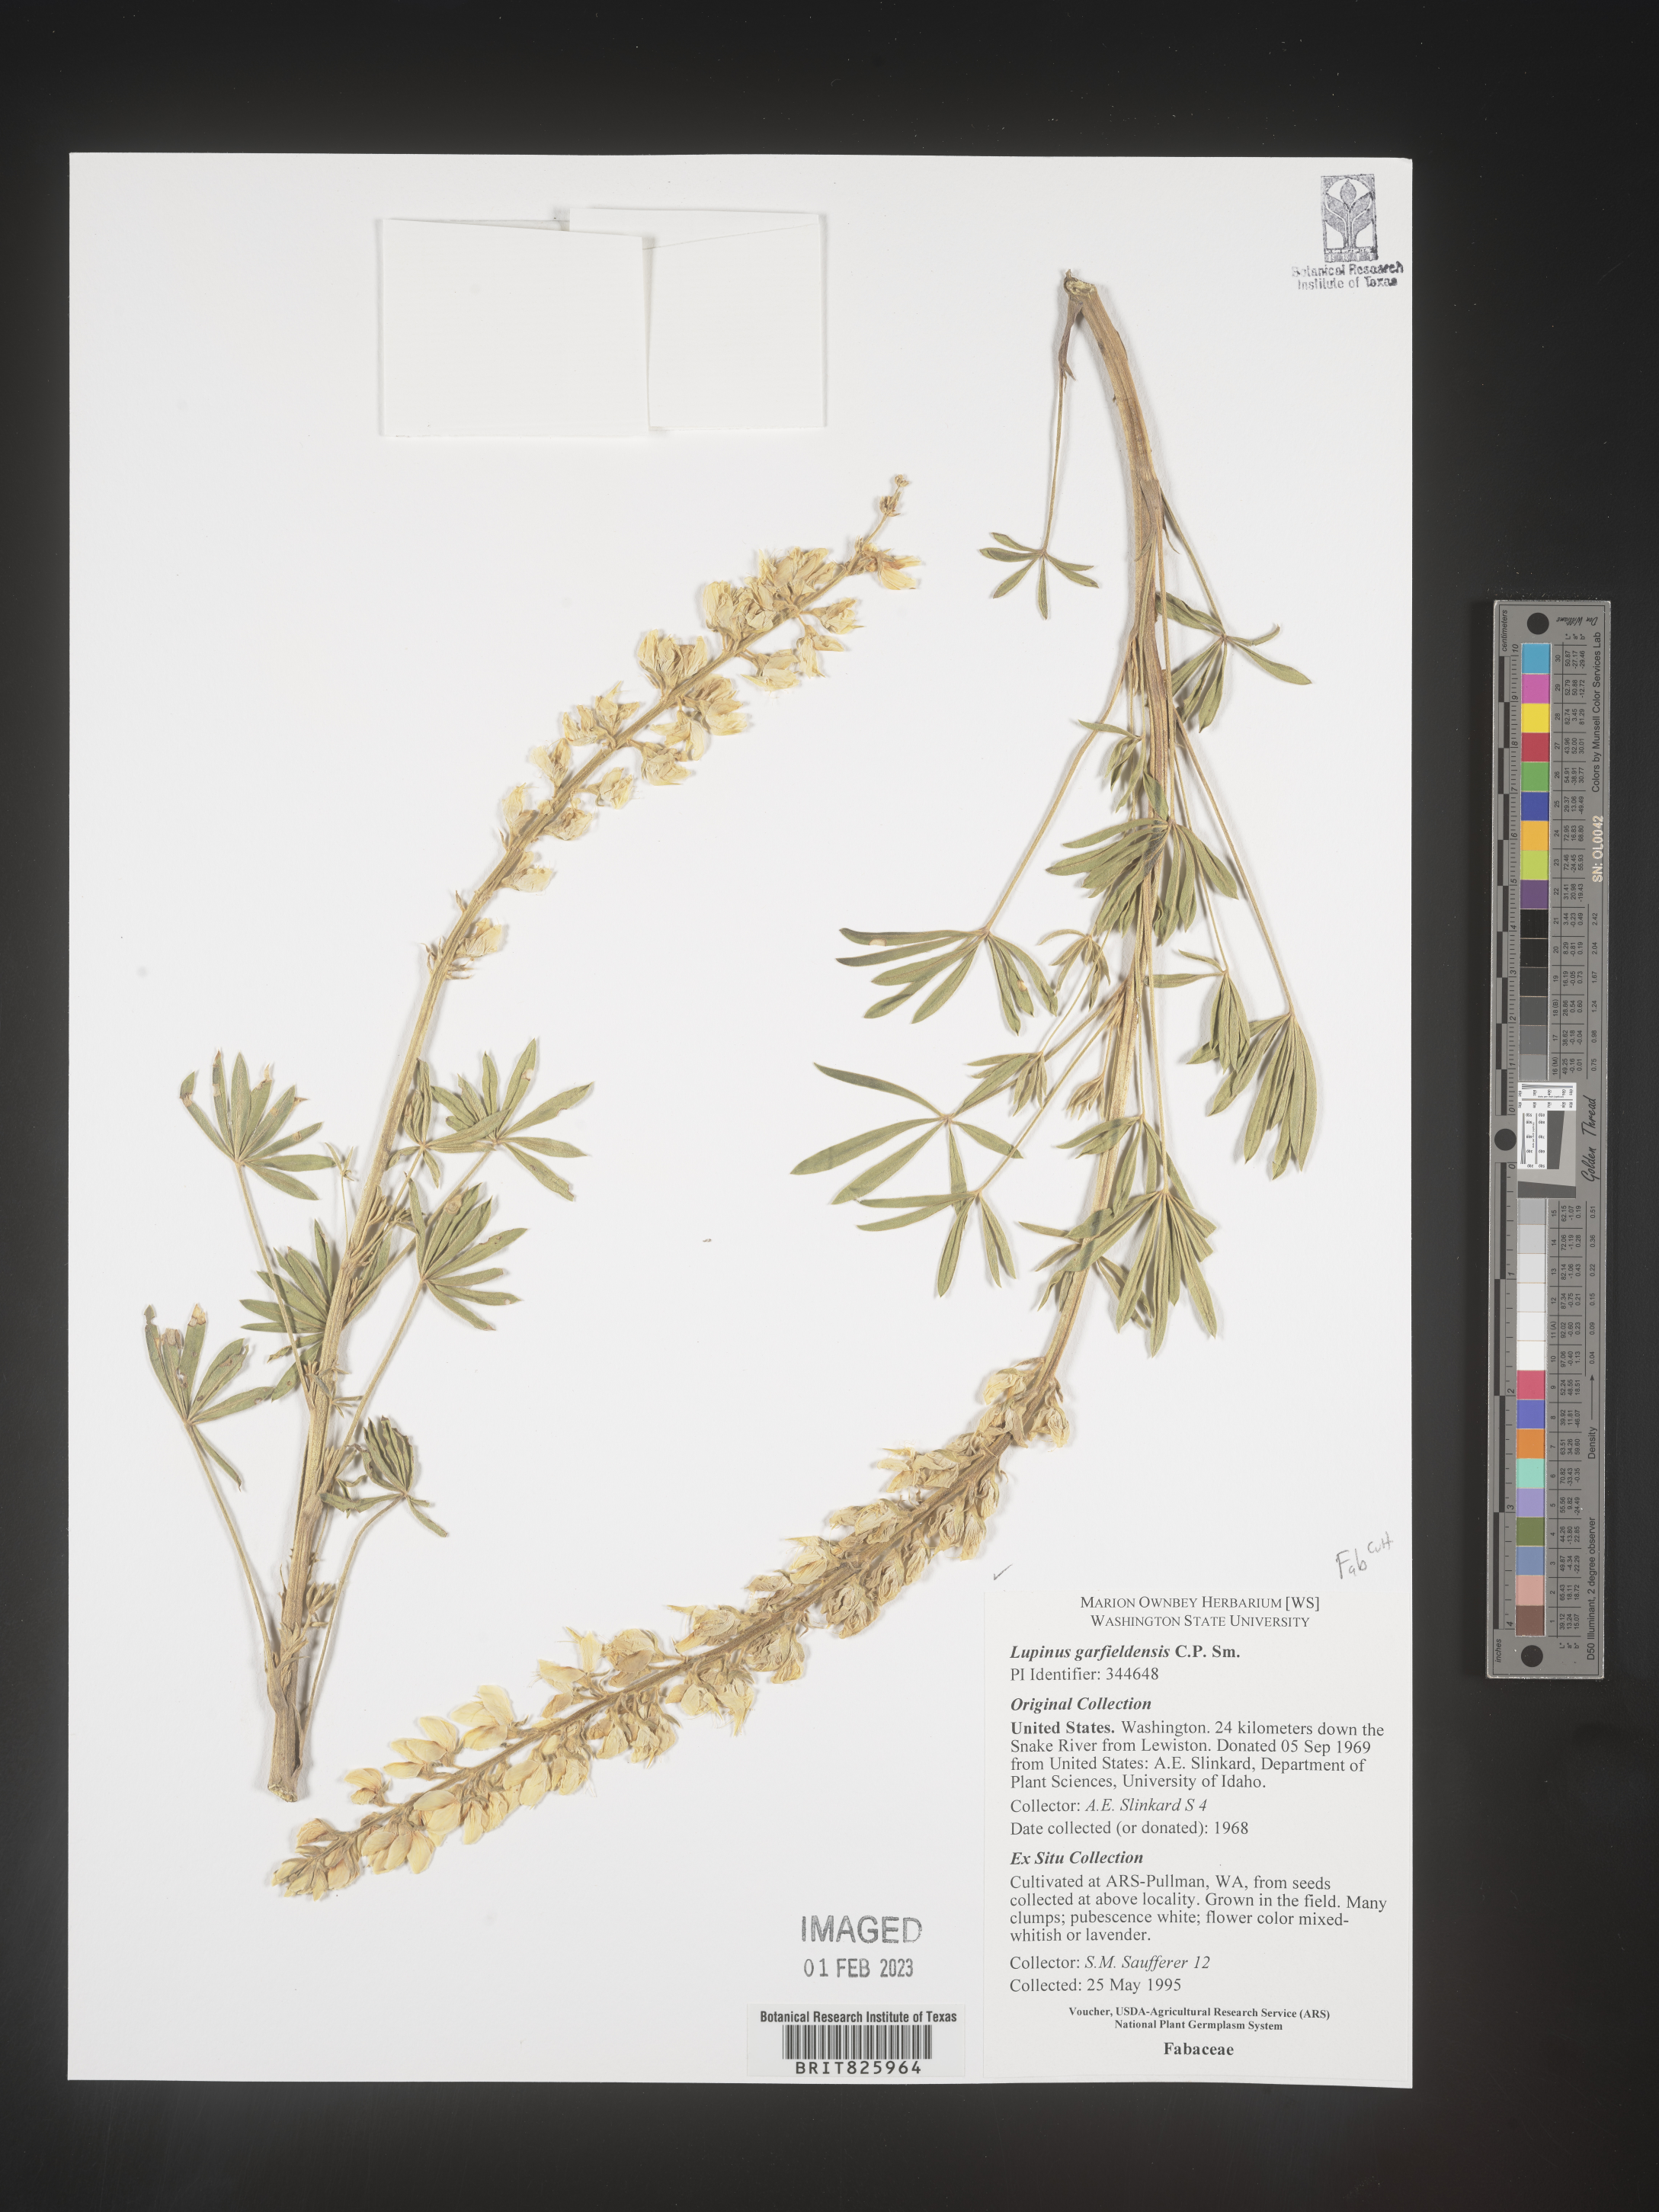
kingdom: Plantae
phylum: Tracheophyta
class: Magnoliopsida
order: Fabales
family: Fabaceae
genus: Lupinus
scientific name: Lupinus
